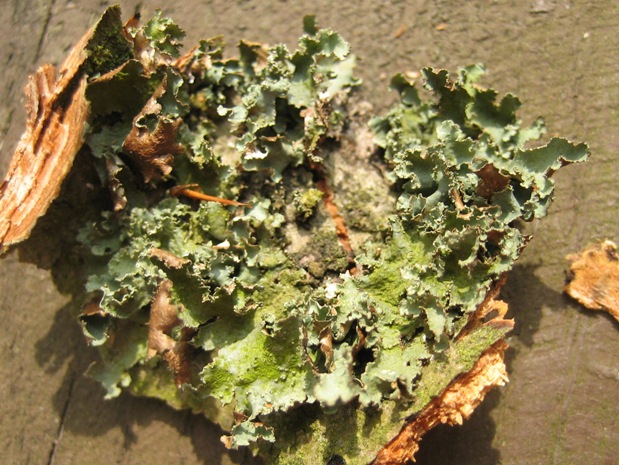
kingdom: Fungi
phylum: Ascomycota
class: Lecanoromycetes
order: Lecanorales
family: Parmeliaceae
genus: Platismatia
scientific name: Platismatia glauca
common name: blågrå papirlav
